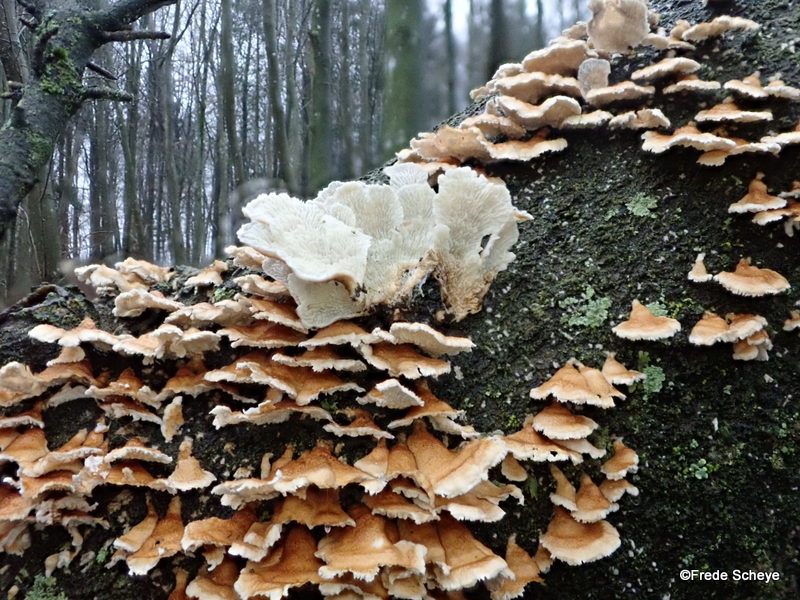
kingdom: Fungi
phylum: Basidiomycota
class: Agaricomycetes
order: Amylocorticiales
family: Amylocorticiaceae
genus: Plicaturopsis
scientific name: Plicaturopsis crispa
